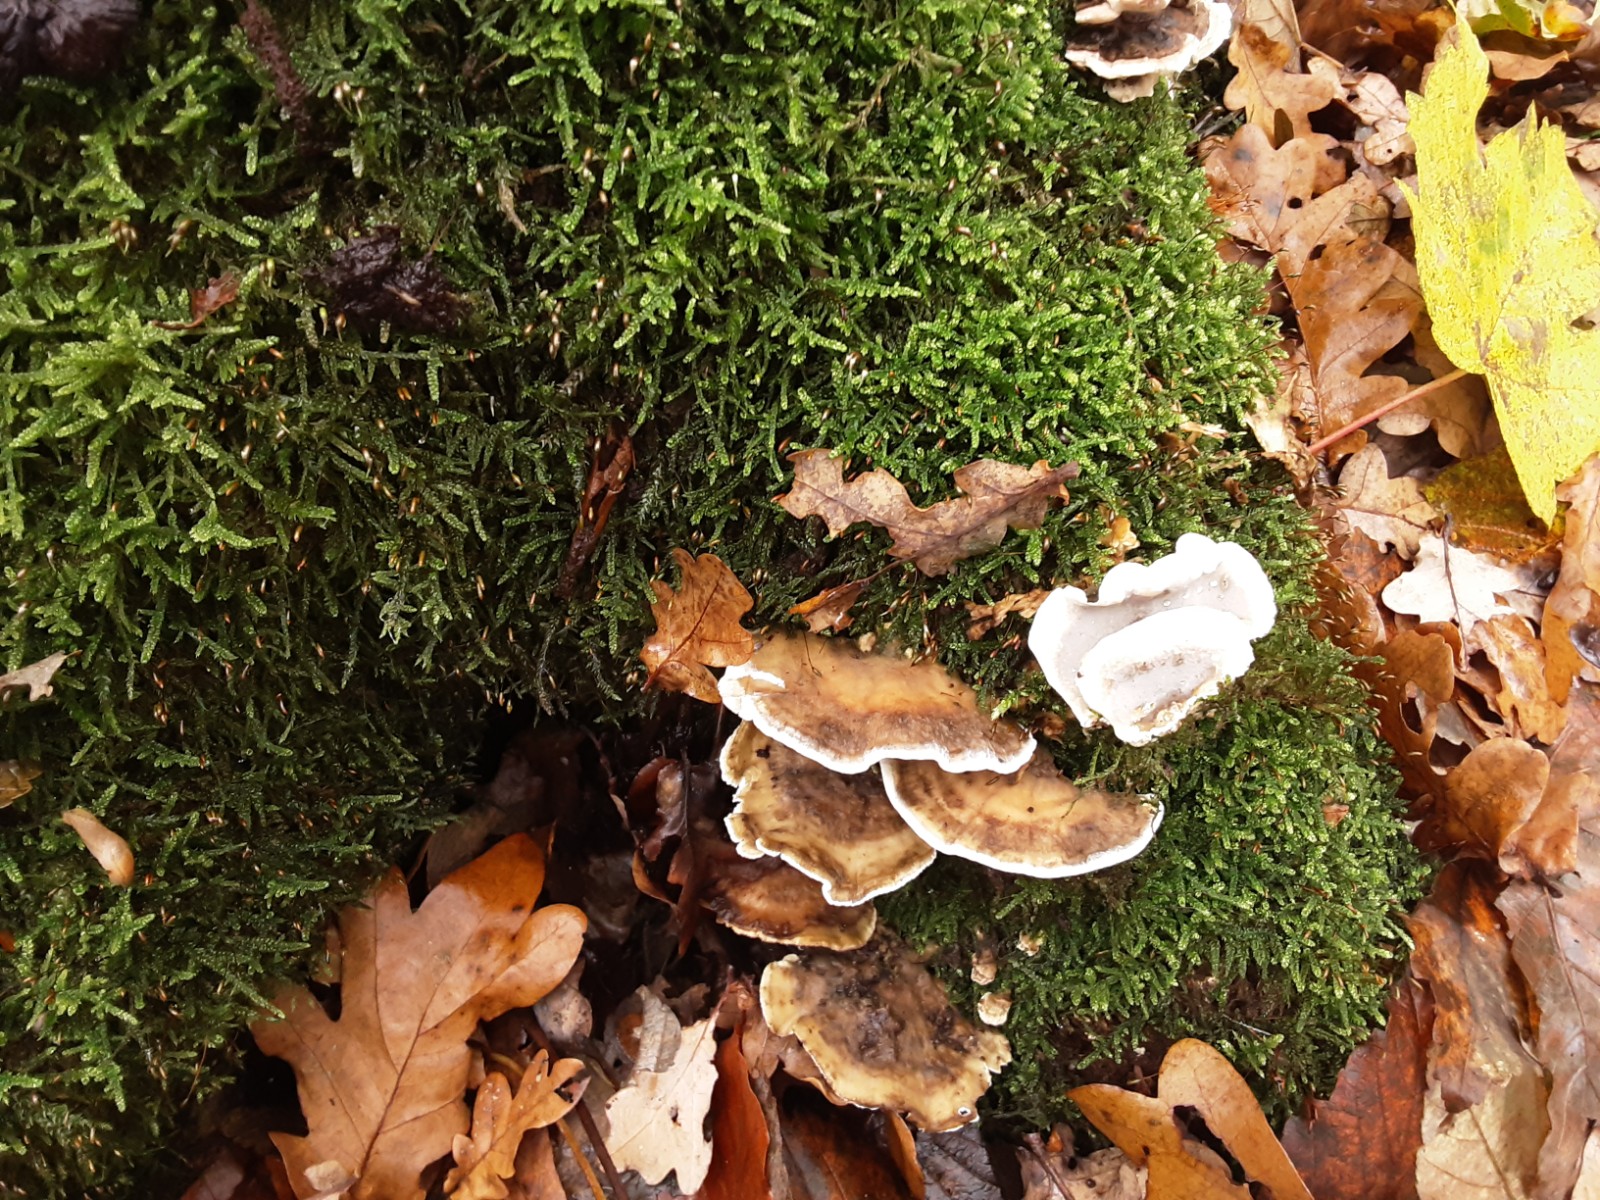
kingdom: Fungi
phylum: Basidiomycota
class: Agaricomycetes
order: Polyporales
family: Phanerochaetaceae
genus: Bjerkandera
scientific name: Bjerkandera adusta
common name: sveden sodporesvamp
